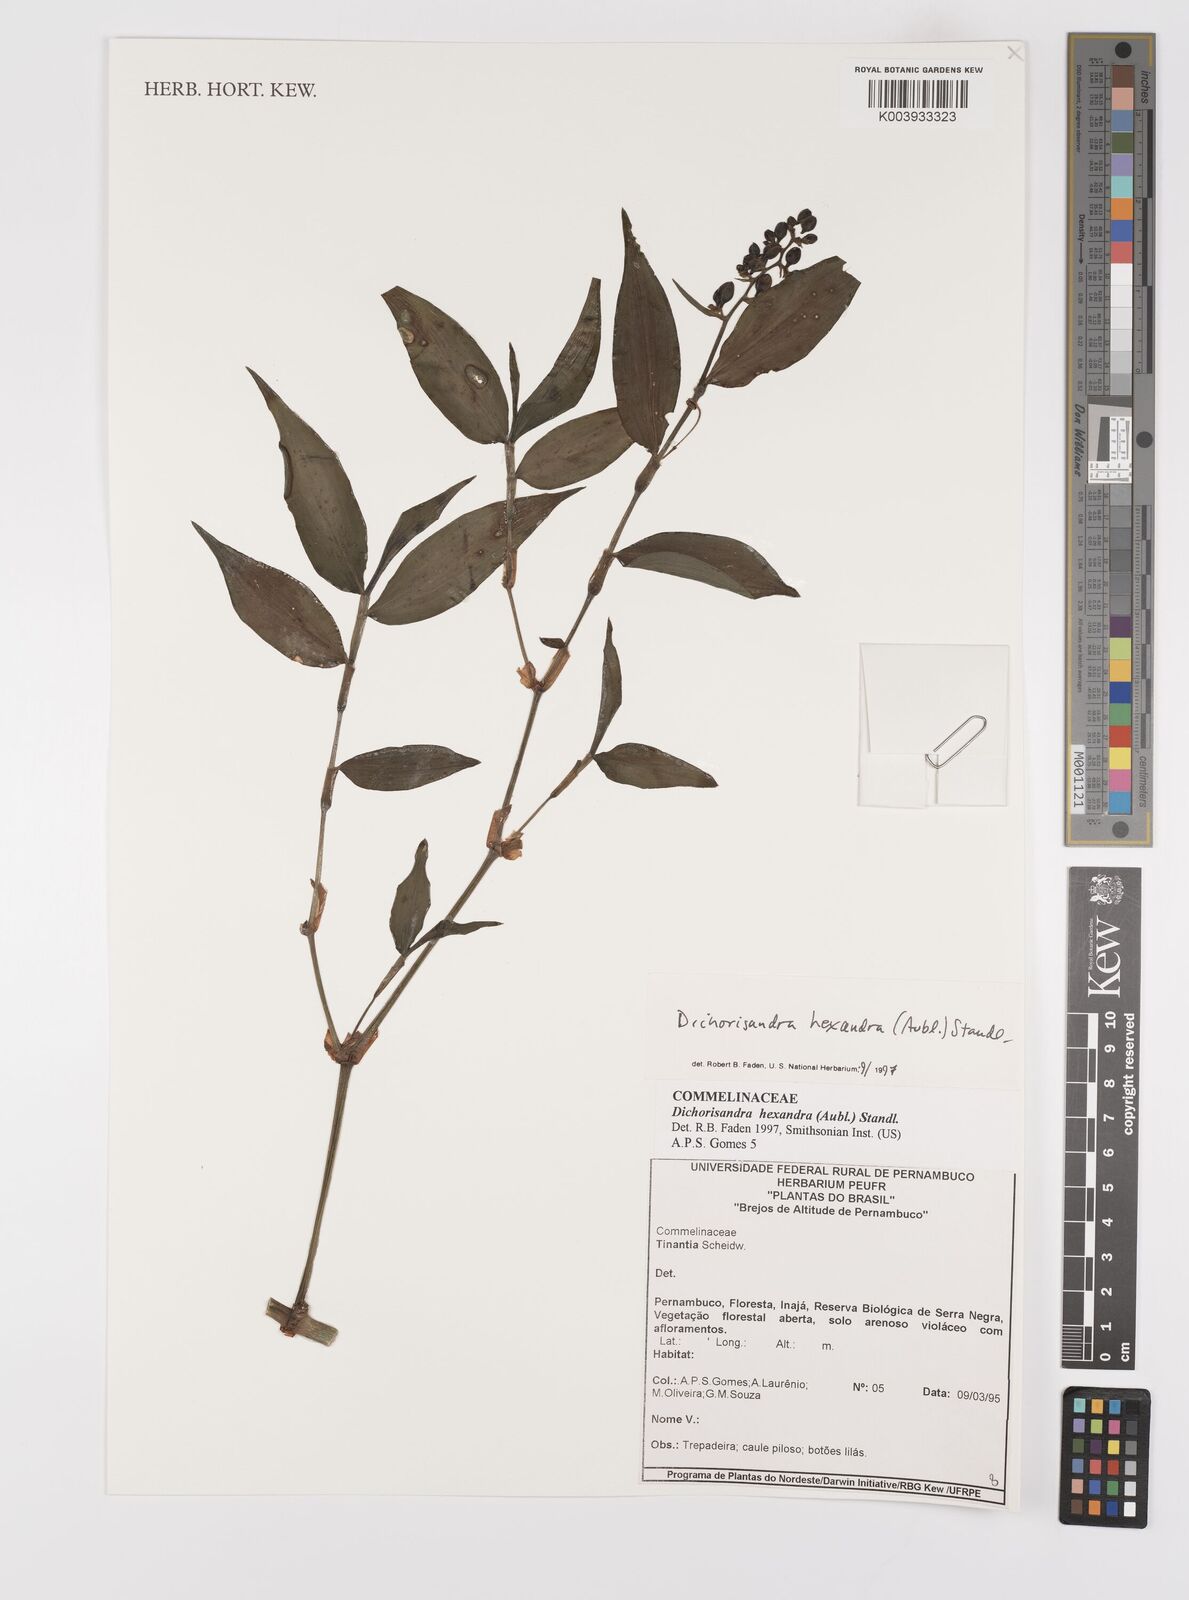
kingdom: Plantae
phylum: Tracheophyta
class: Liliopsida
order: Commelinales
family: Commelinaceae
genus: Dichorisandra
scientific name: Dichorisandra hexandra
